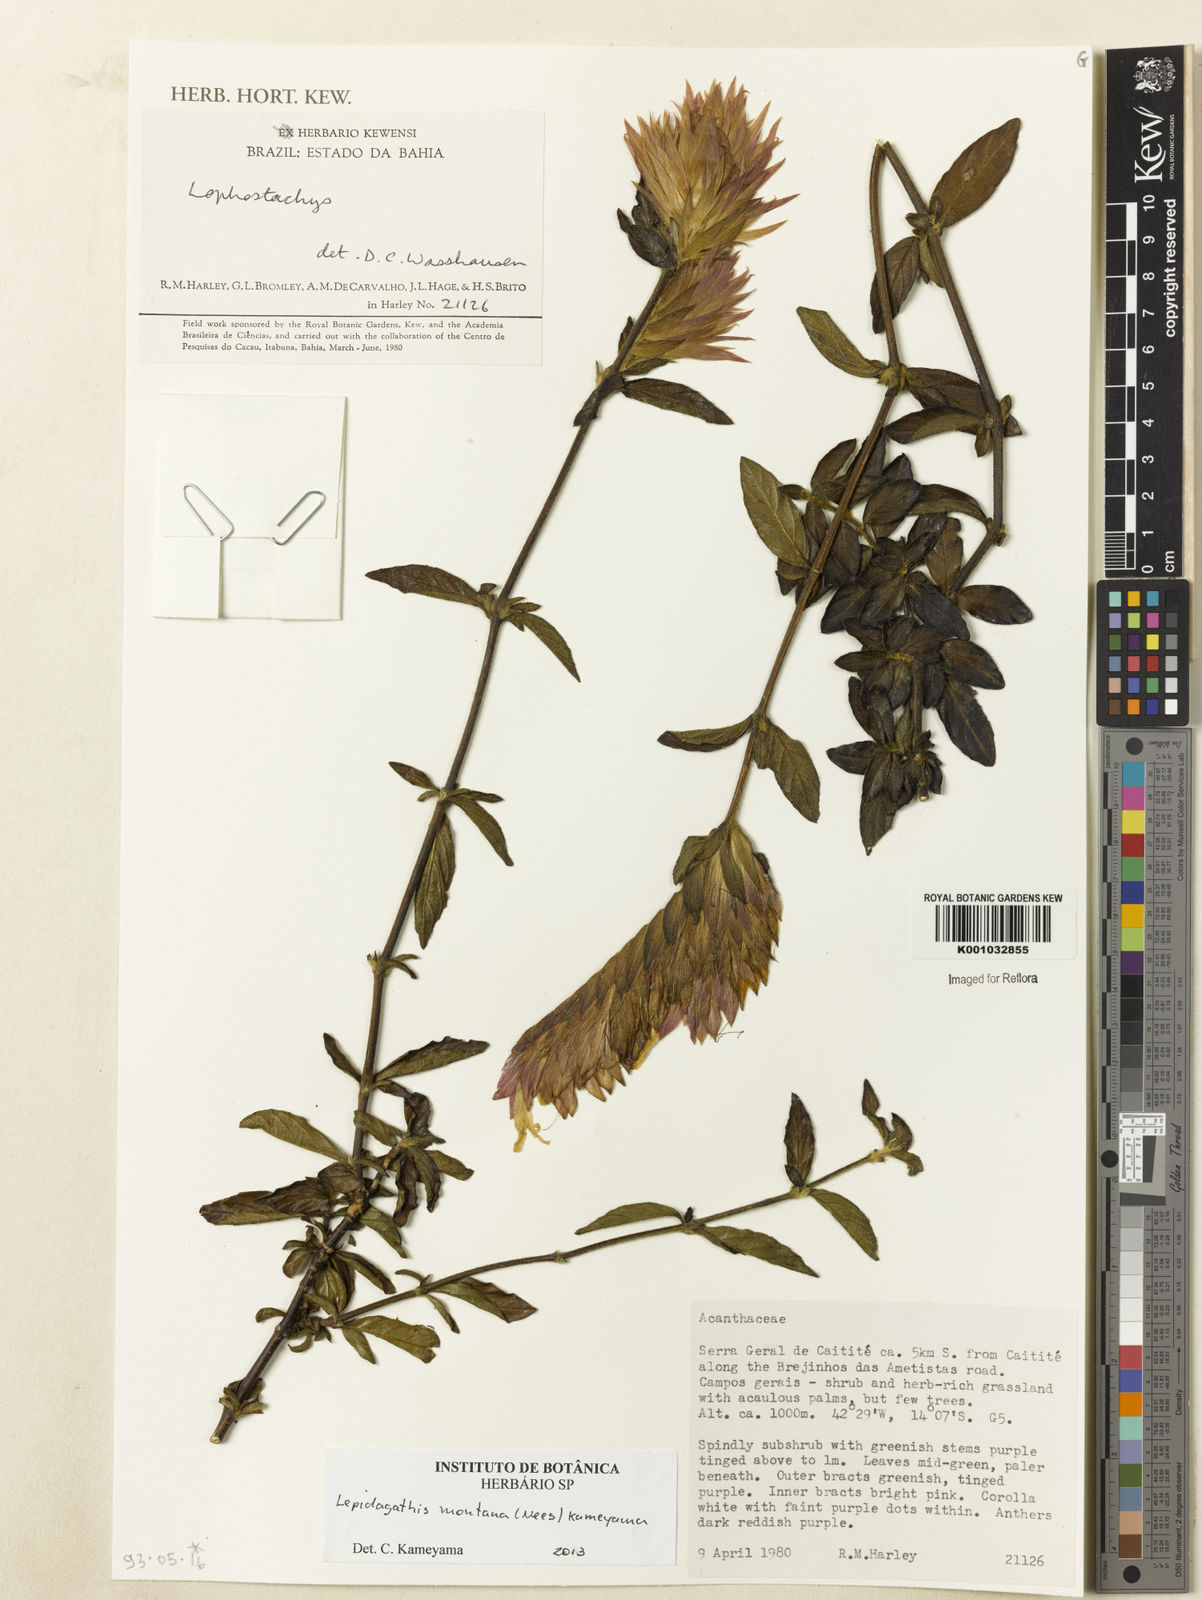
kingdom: Plantae
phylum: Tracheophyta
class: Magnoliopsida
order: Lamiales
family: Acanthaceae
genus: Lepidagathis
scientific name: Lepidagathis montana
